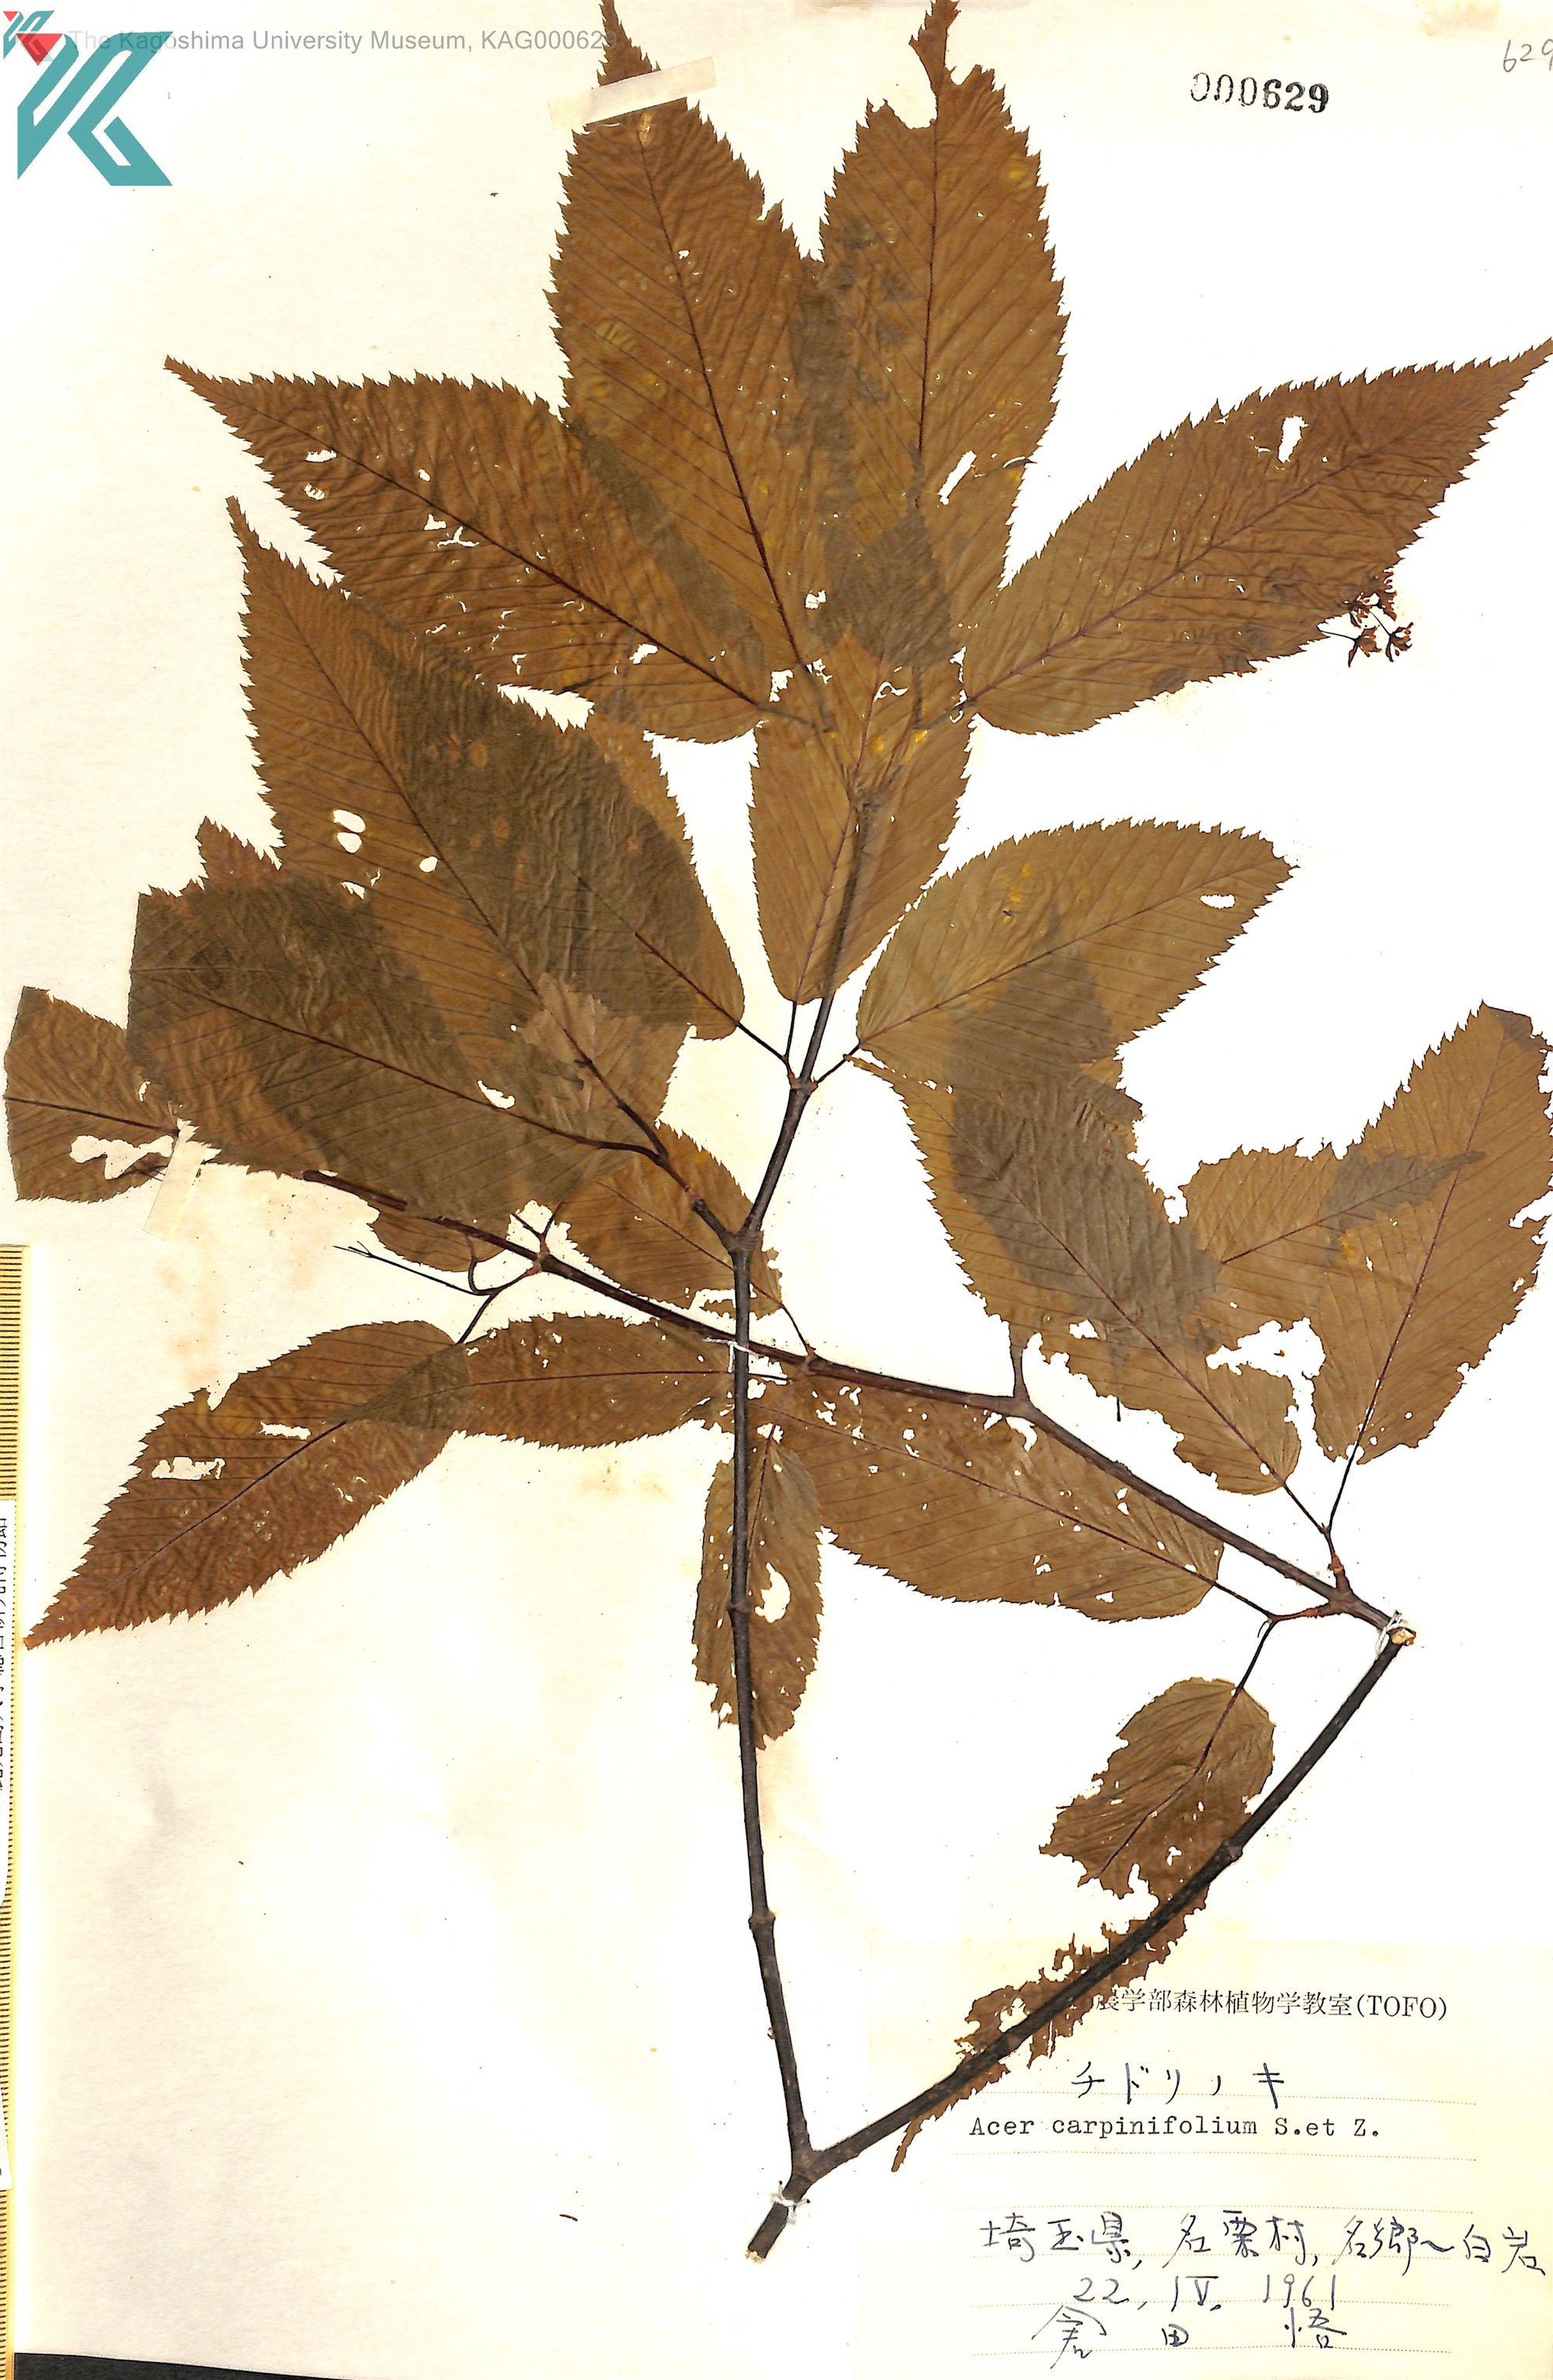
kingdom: Plantae
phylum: Tracheophyta
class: Magnoliopsida
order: Sapindales
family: Sapindaceae
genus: Acer
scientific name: Acer carpinifolium
